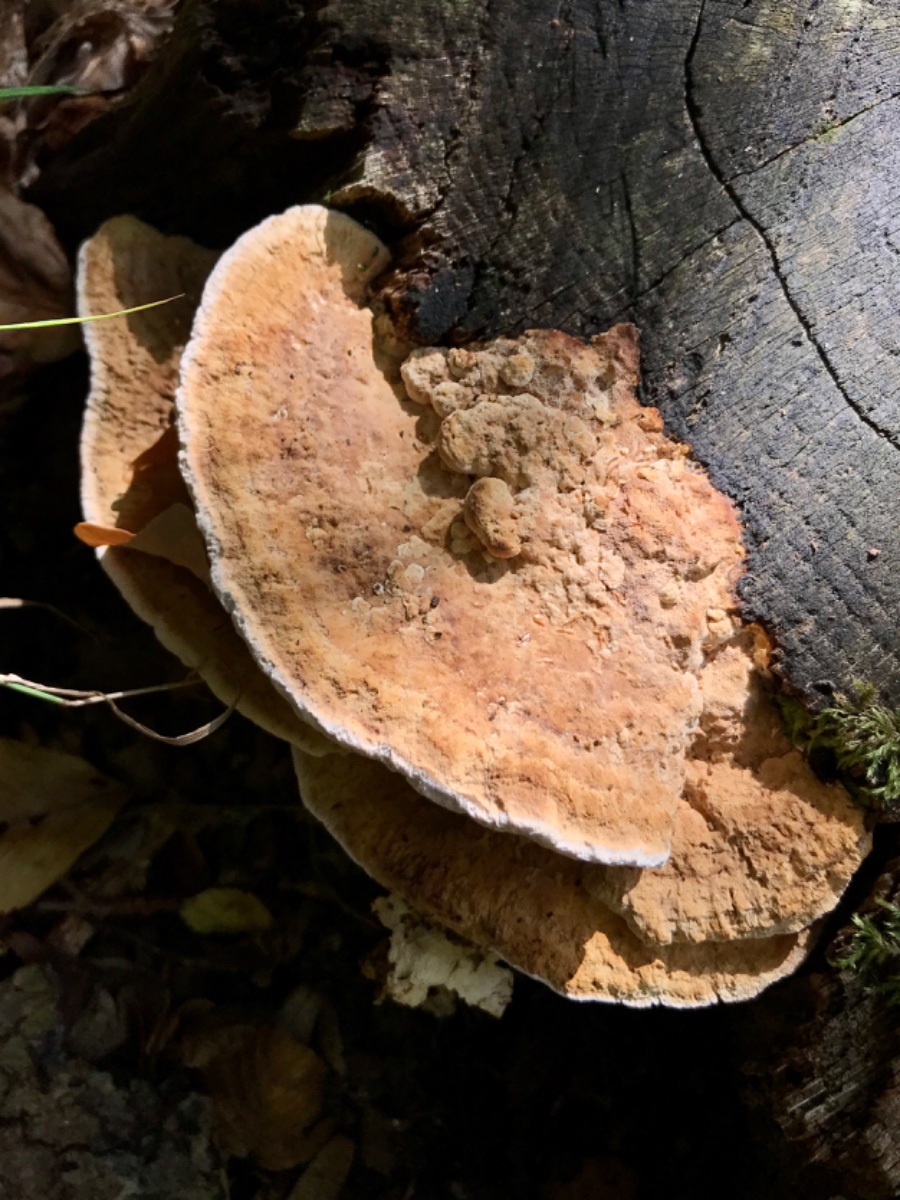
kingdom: Fungi
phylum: Basidiomycota
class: Agaricomycetes
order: Polyporales
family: Fomitopsidaceae
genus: Daedalea
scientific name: Daedalea quercina
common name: ege-labyrintsvamp
